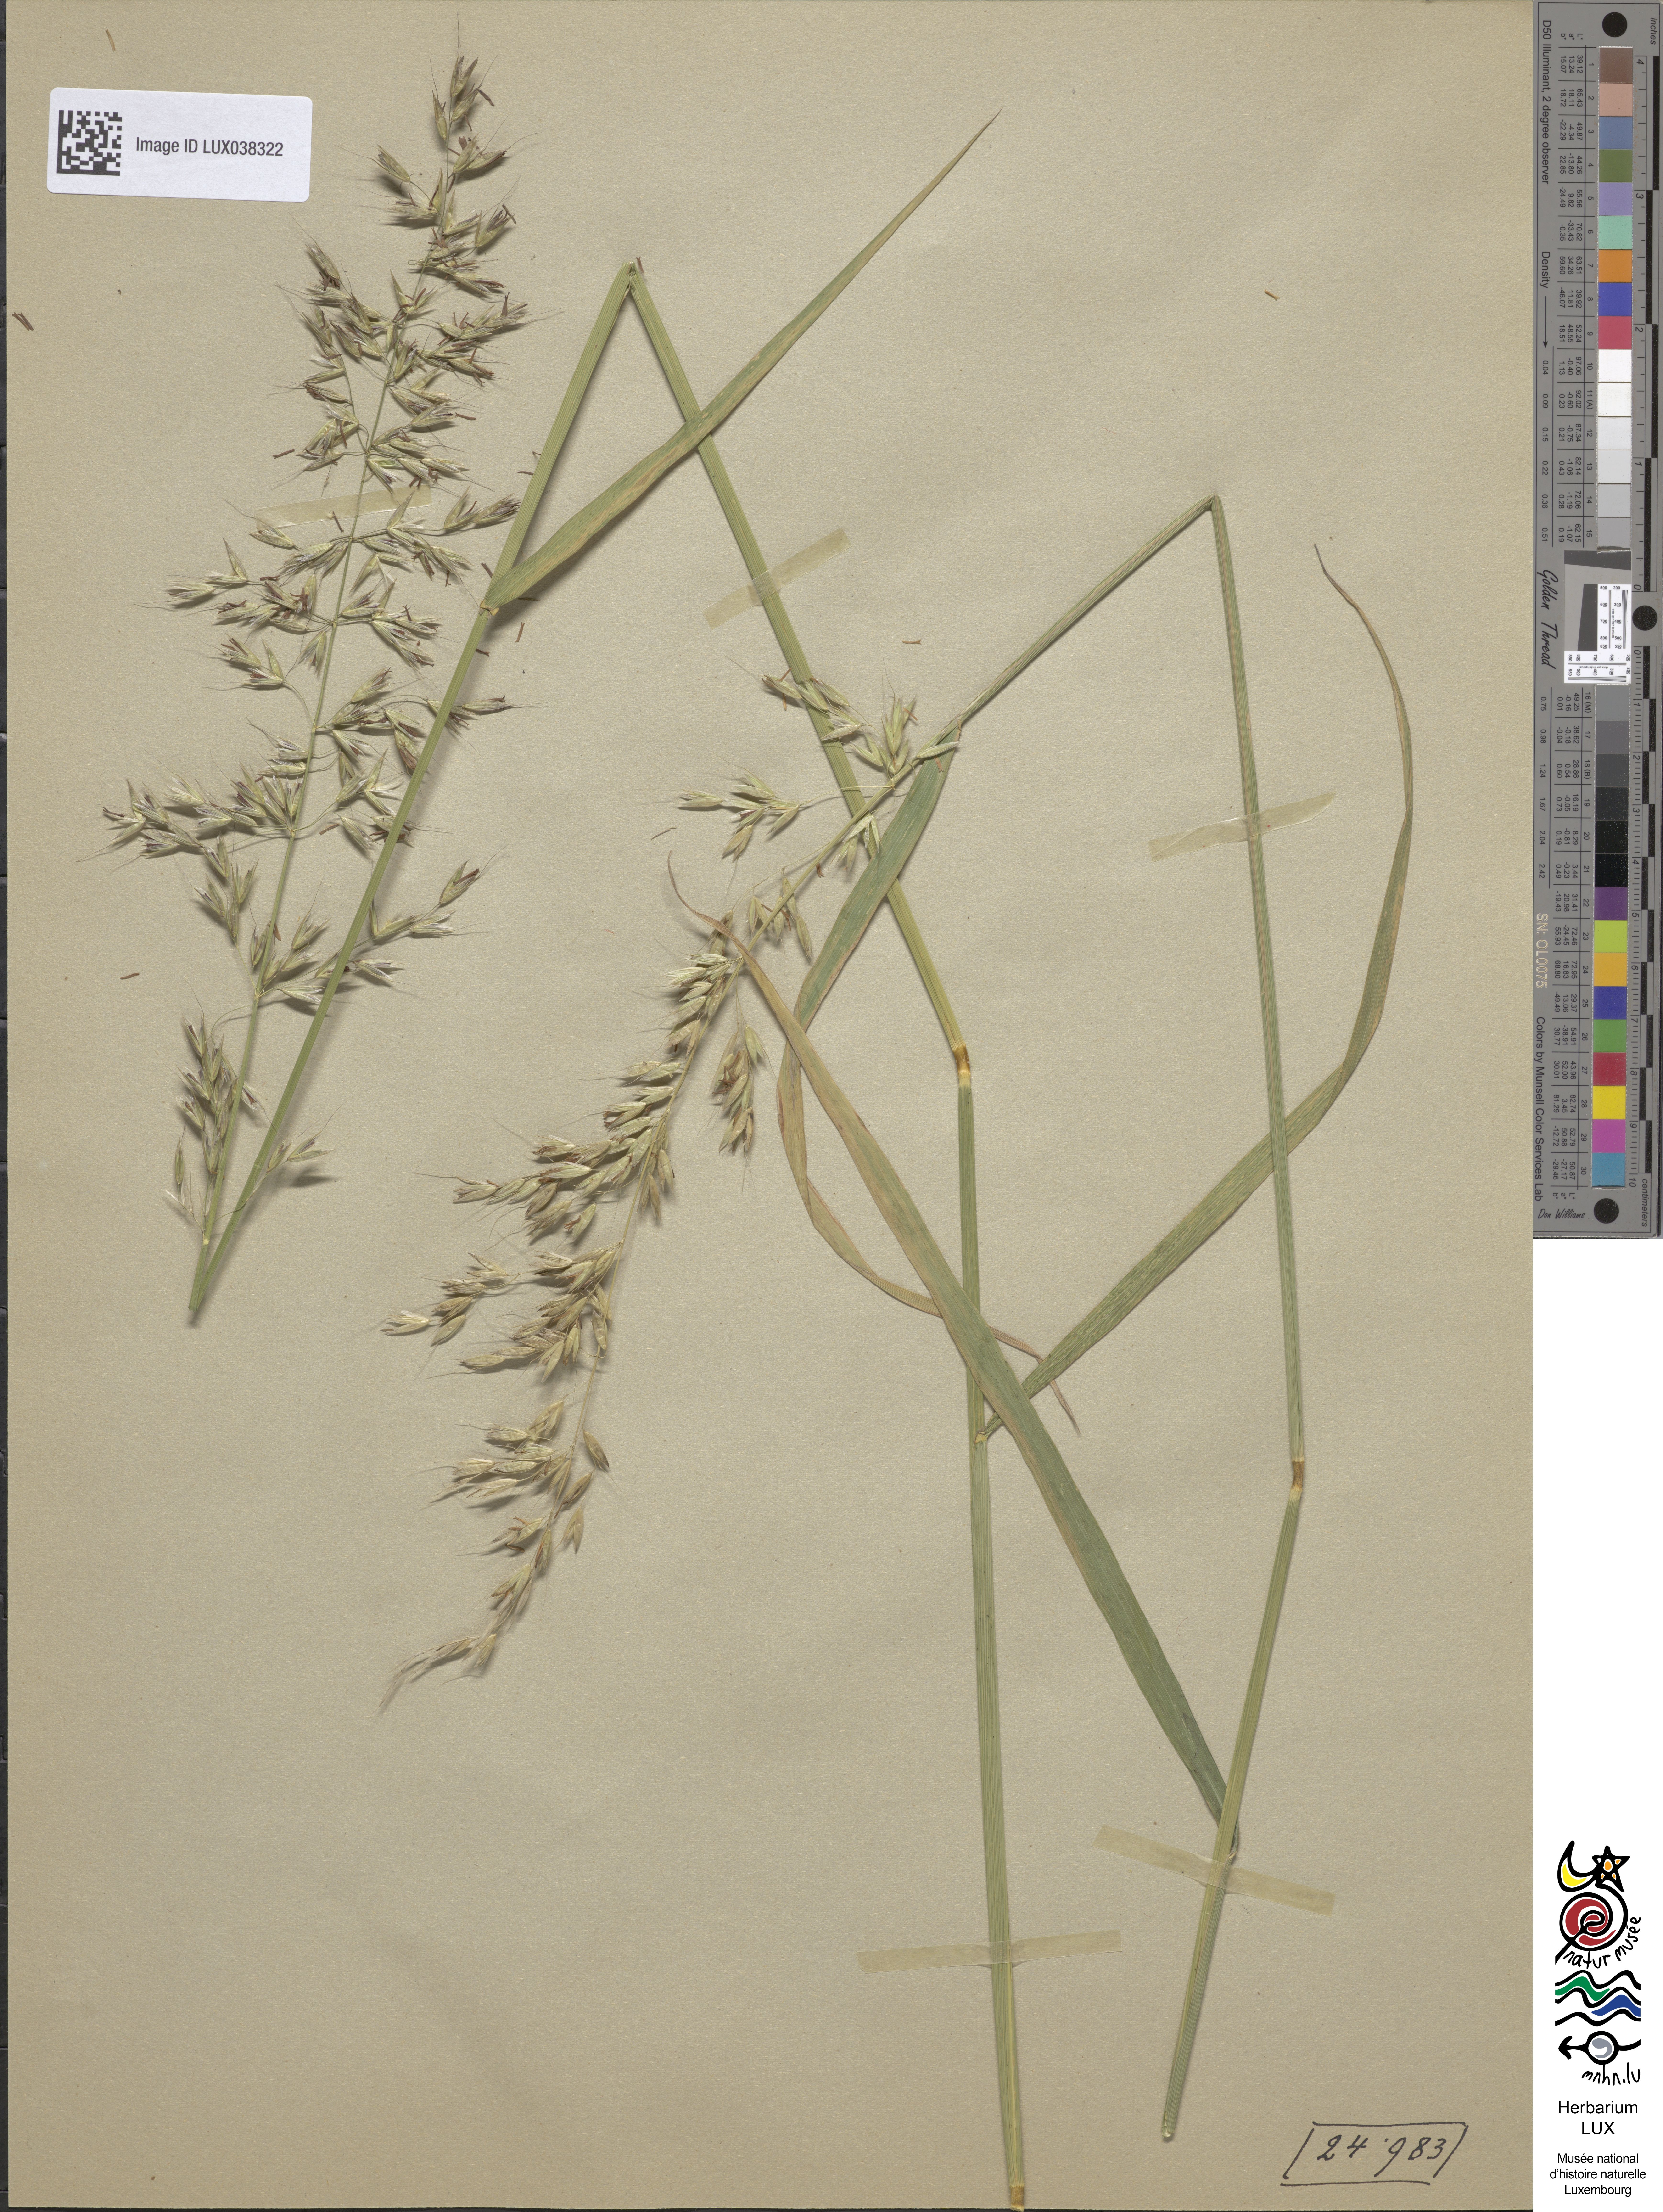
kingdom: Plantae
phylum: Tracheophyta
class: Liliopsida
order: Poales
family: Poaceae
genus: Arrhenatherum
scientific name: Arrhenatherum elatius
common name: Tall oatgrass
